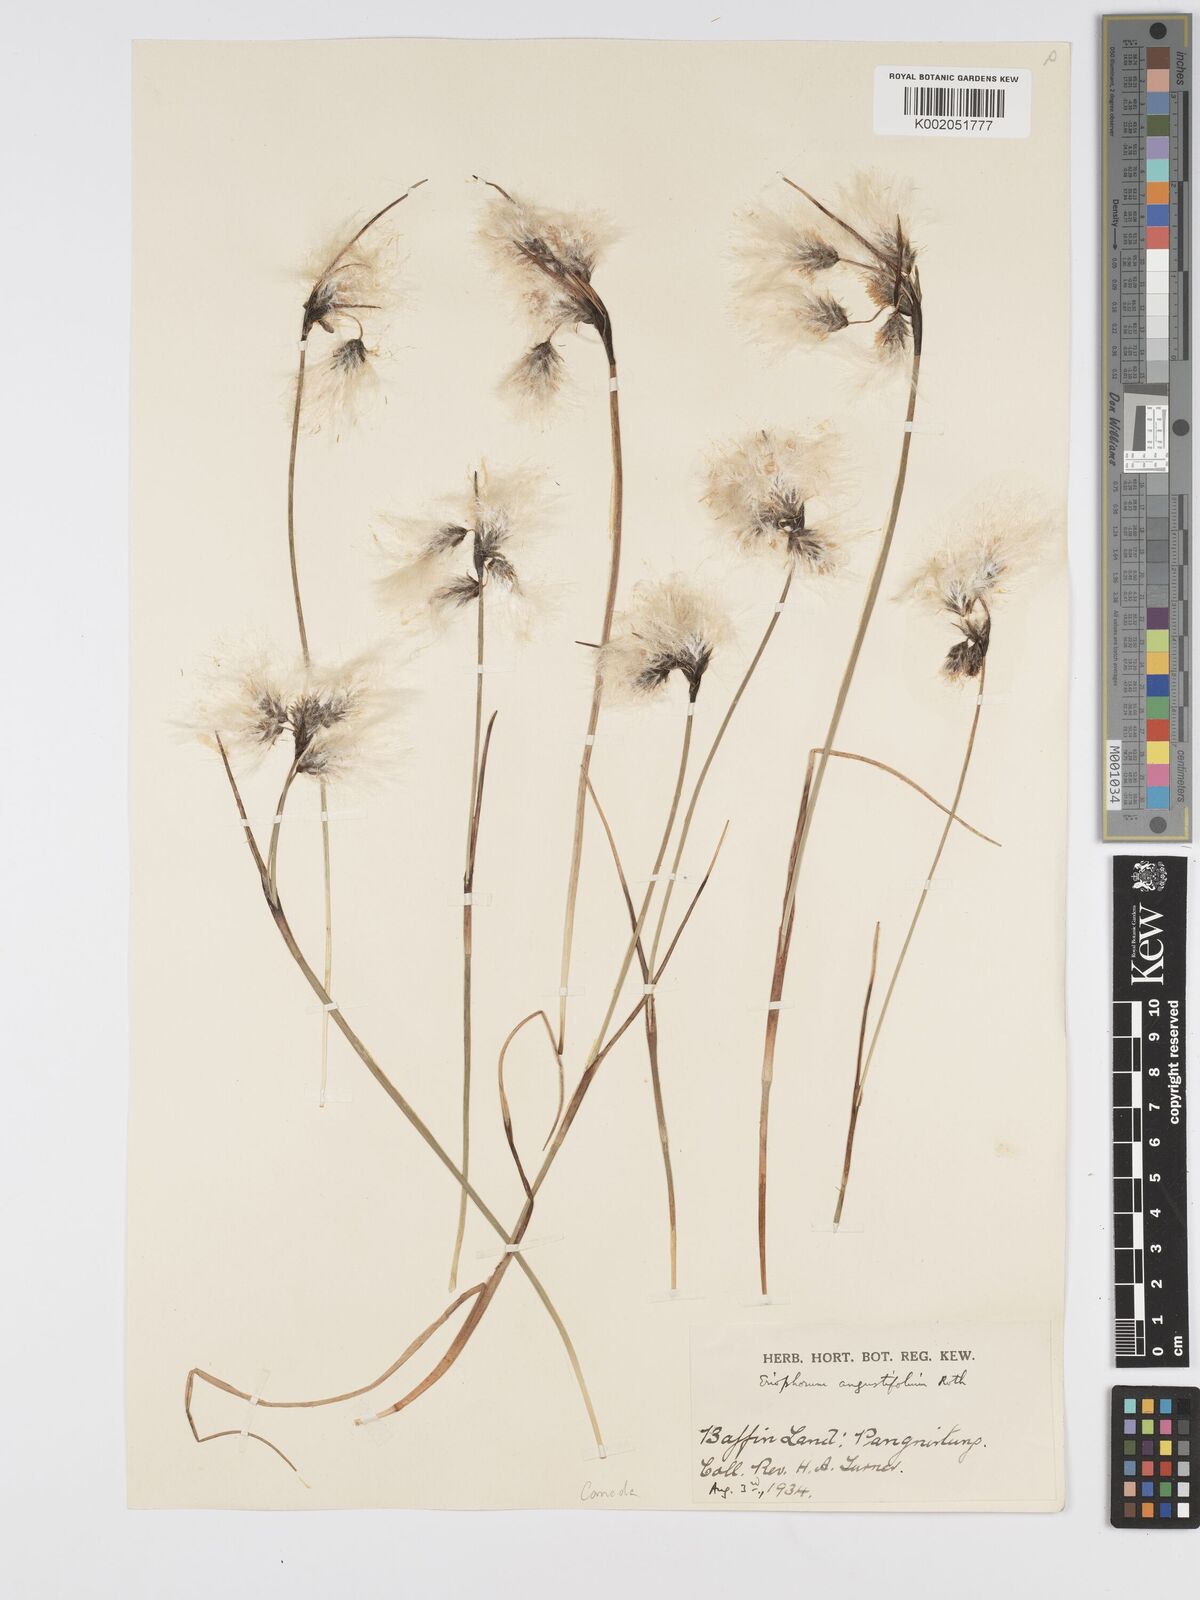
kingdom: Plantae
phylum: Tracheophyta
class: Liliopsida
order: Poales
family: Cyperaceae
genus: Eriophorum
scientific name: Eriophorum angustifolium
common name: Common cottongrass
